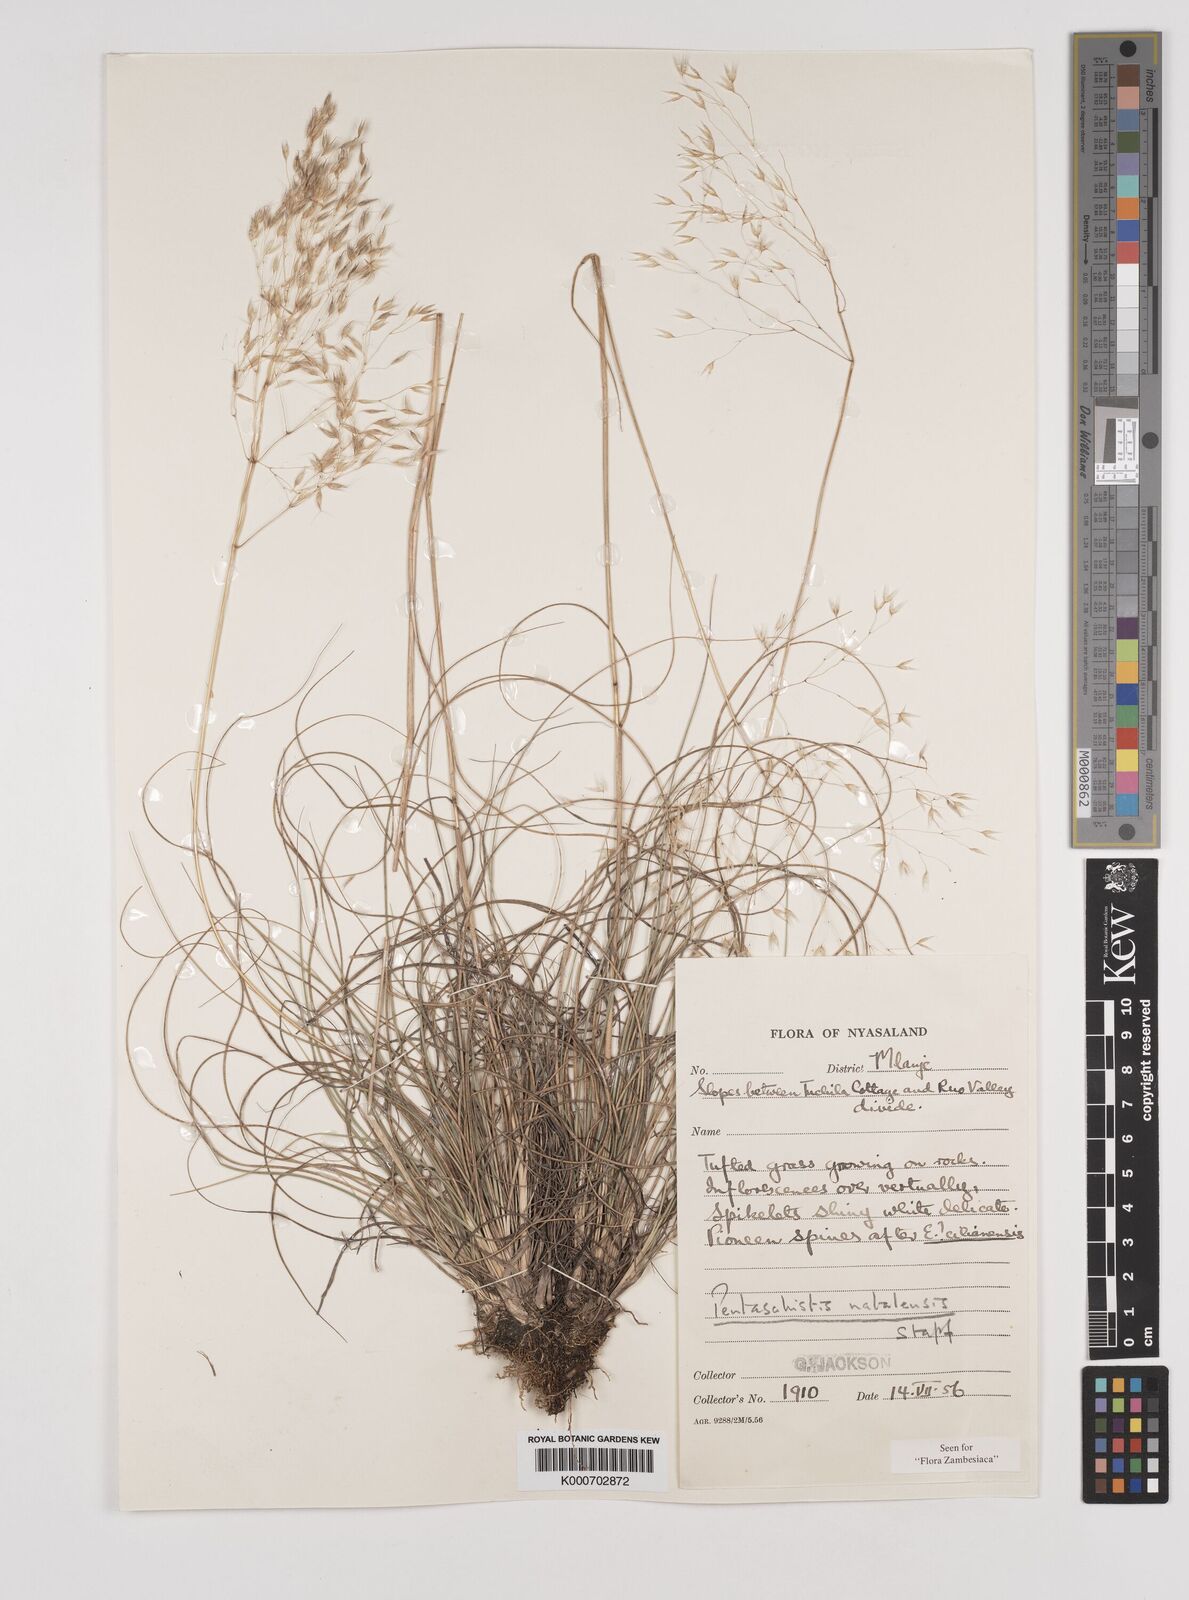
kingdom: Plantae
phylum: Tracheophyta
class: Liliopsida
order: Poales
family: Poaceae
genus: Pentameris
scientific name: Pentameris natalensis
